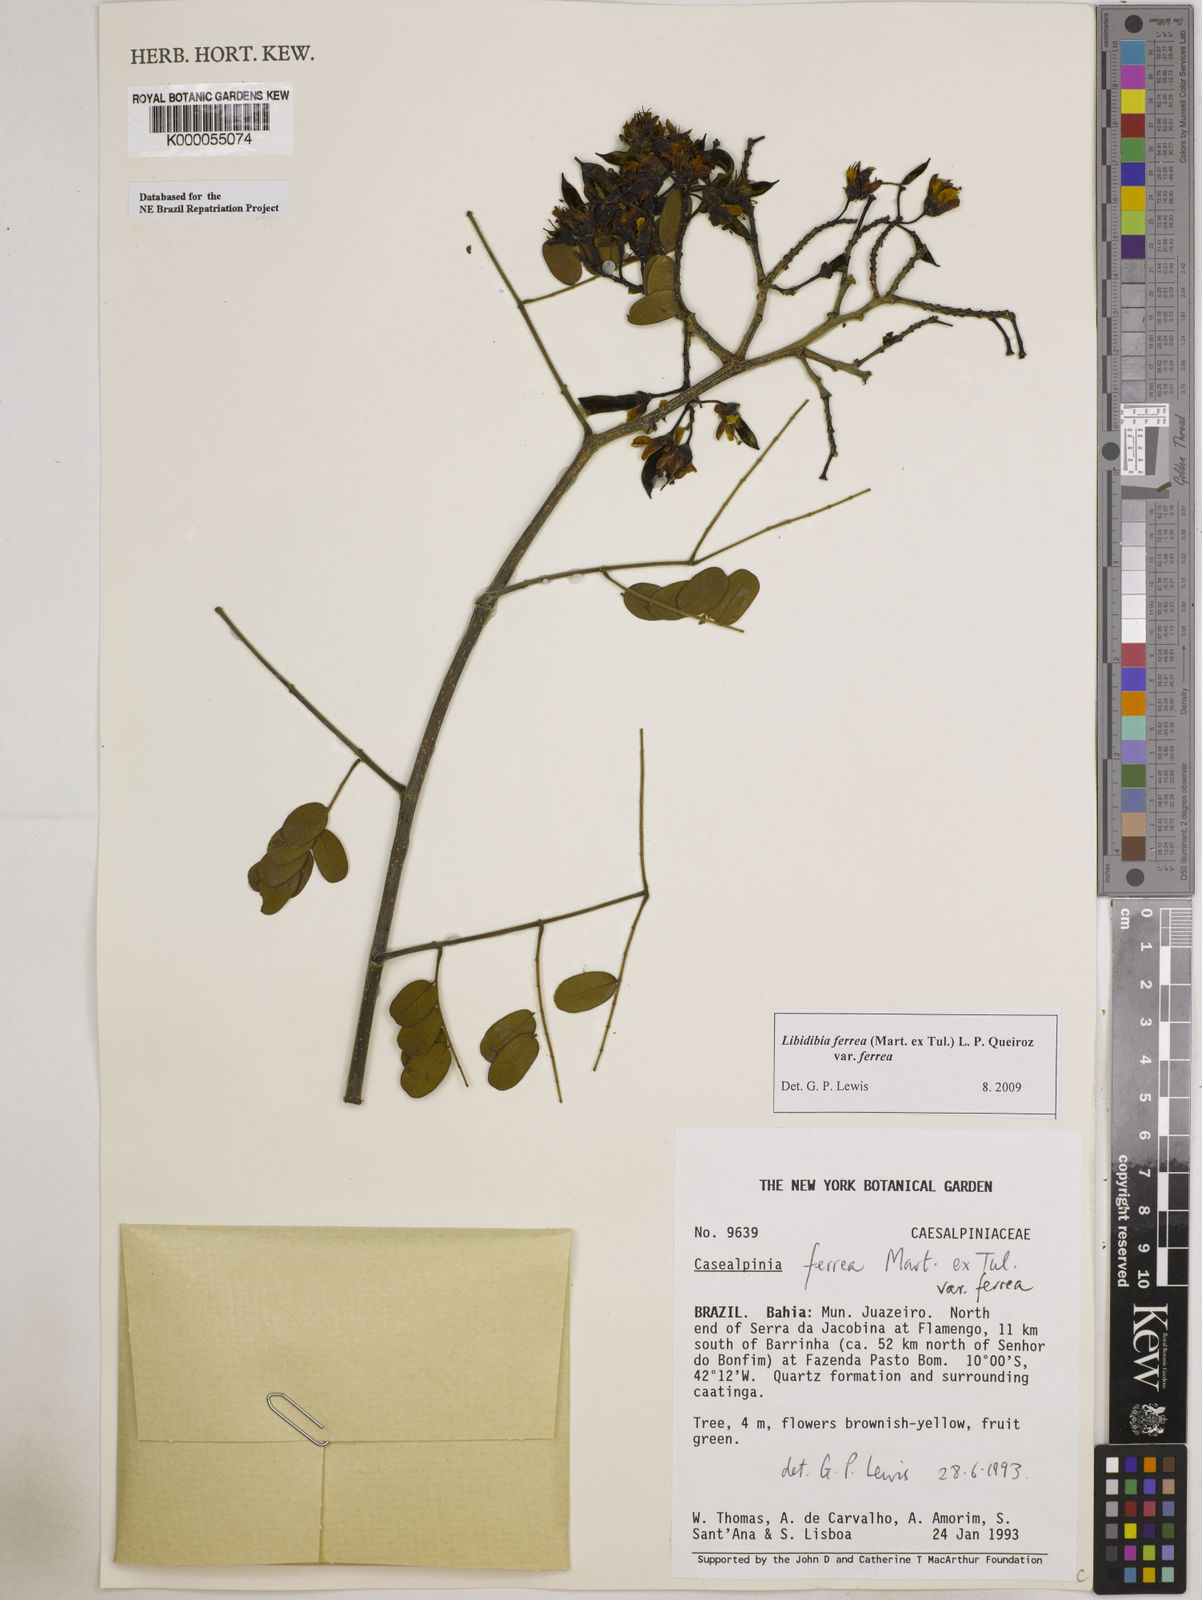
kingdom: Plantae
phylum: Tracheophyta
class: Magnoliopsida
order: Fabales
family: Fabaceae
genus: Libidibia
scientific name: Libidibia ferrea
